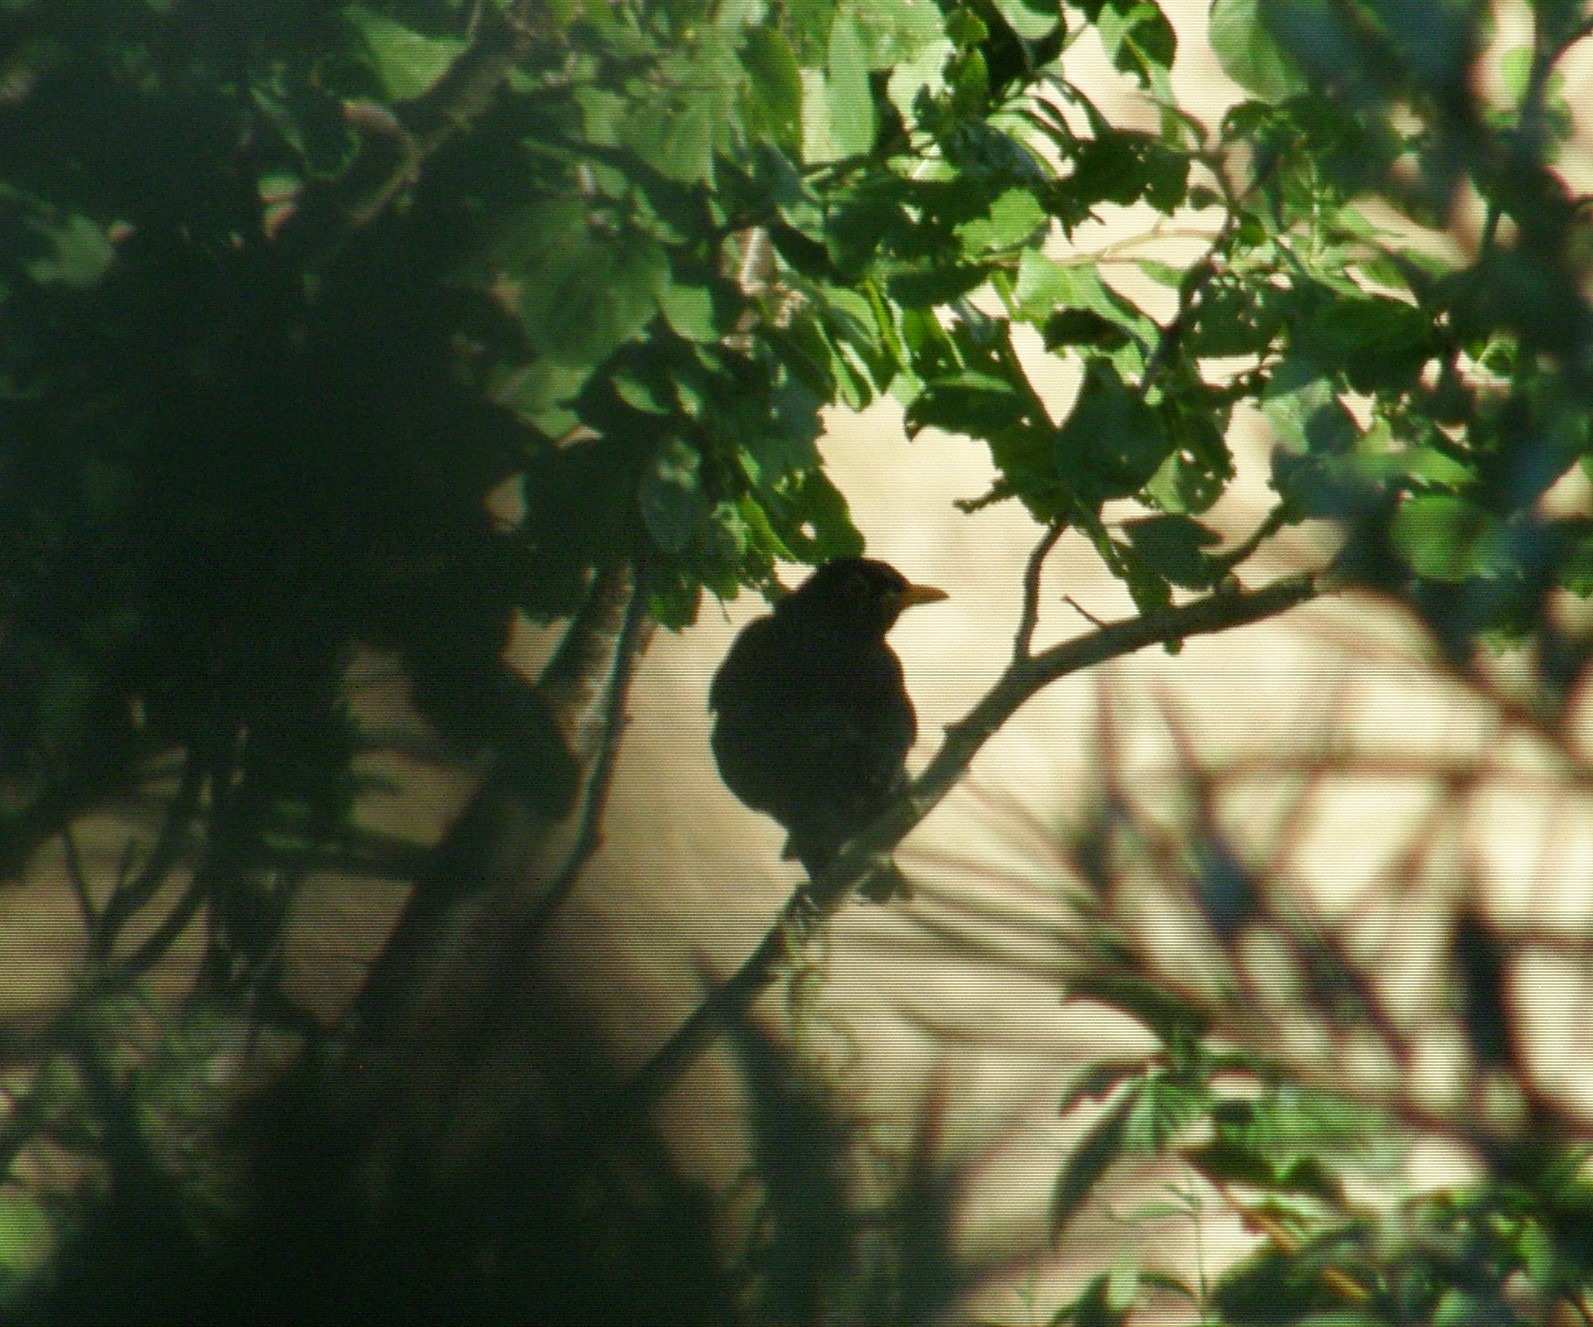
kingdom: Animalia
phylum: Chordata
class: Aves
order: Passeriformes
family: Turdidae
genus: Turdus
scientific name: Turdus merula
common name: Solsort
